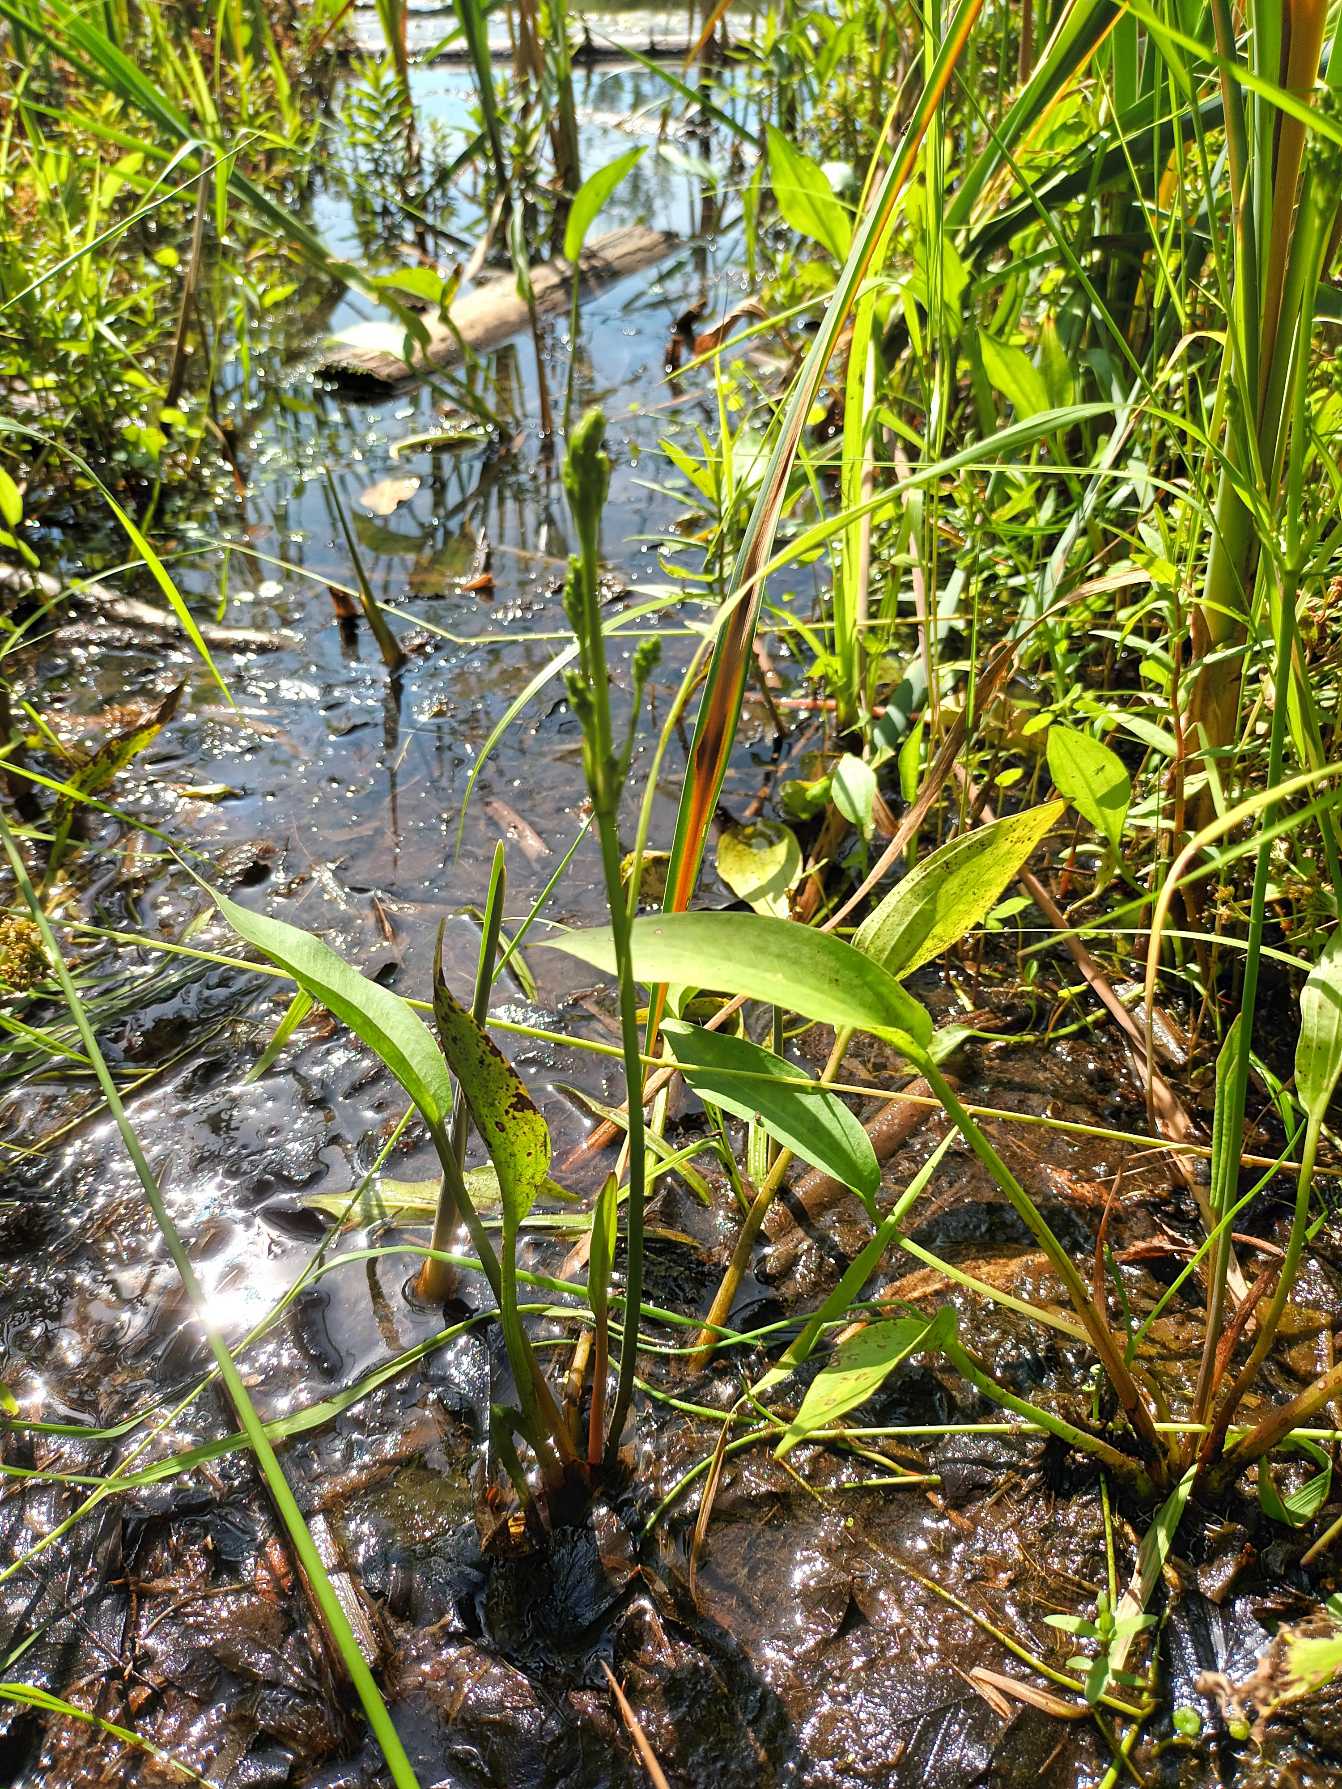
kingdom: Plantae
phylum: Tracheophyta
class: Liliopsida
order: Alismatales
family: Alismataceae
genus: Alisma
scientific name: Alisma plantago-aquatica
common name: Vejbred-skeblad
